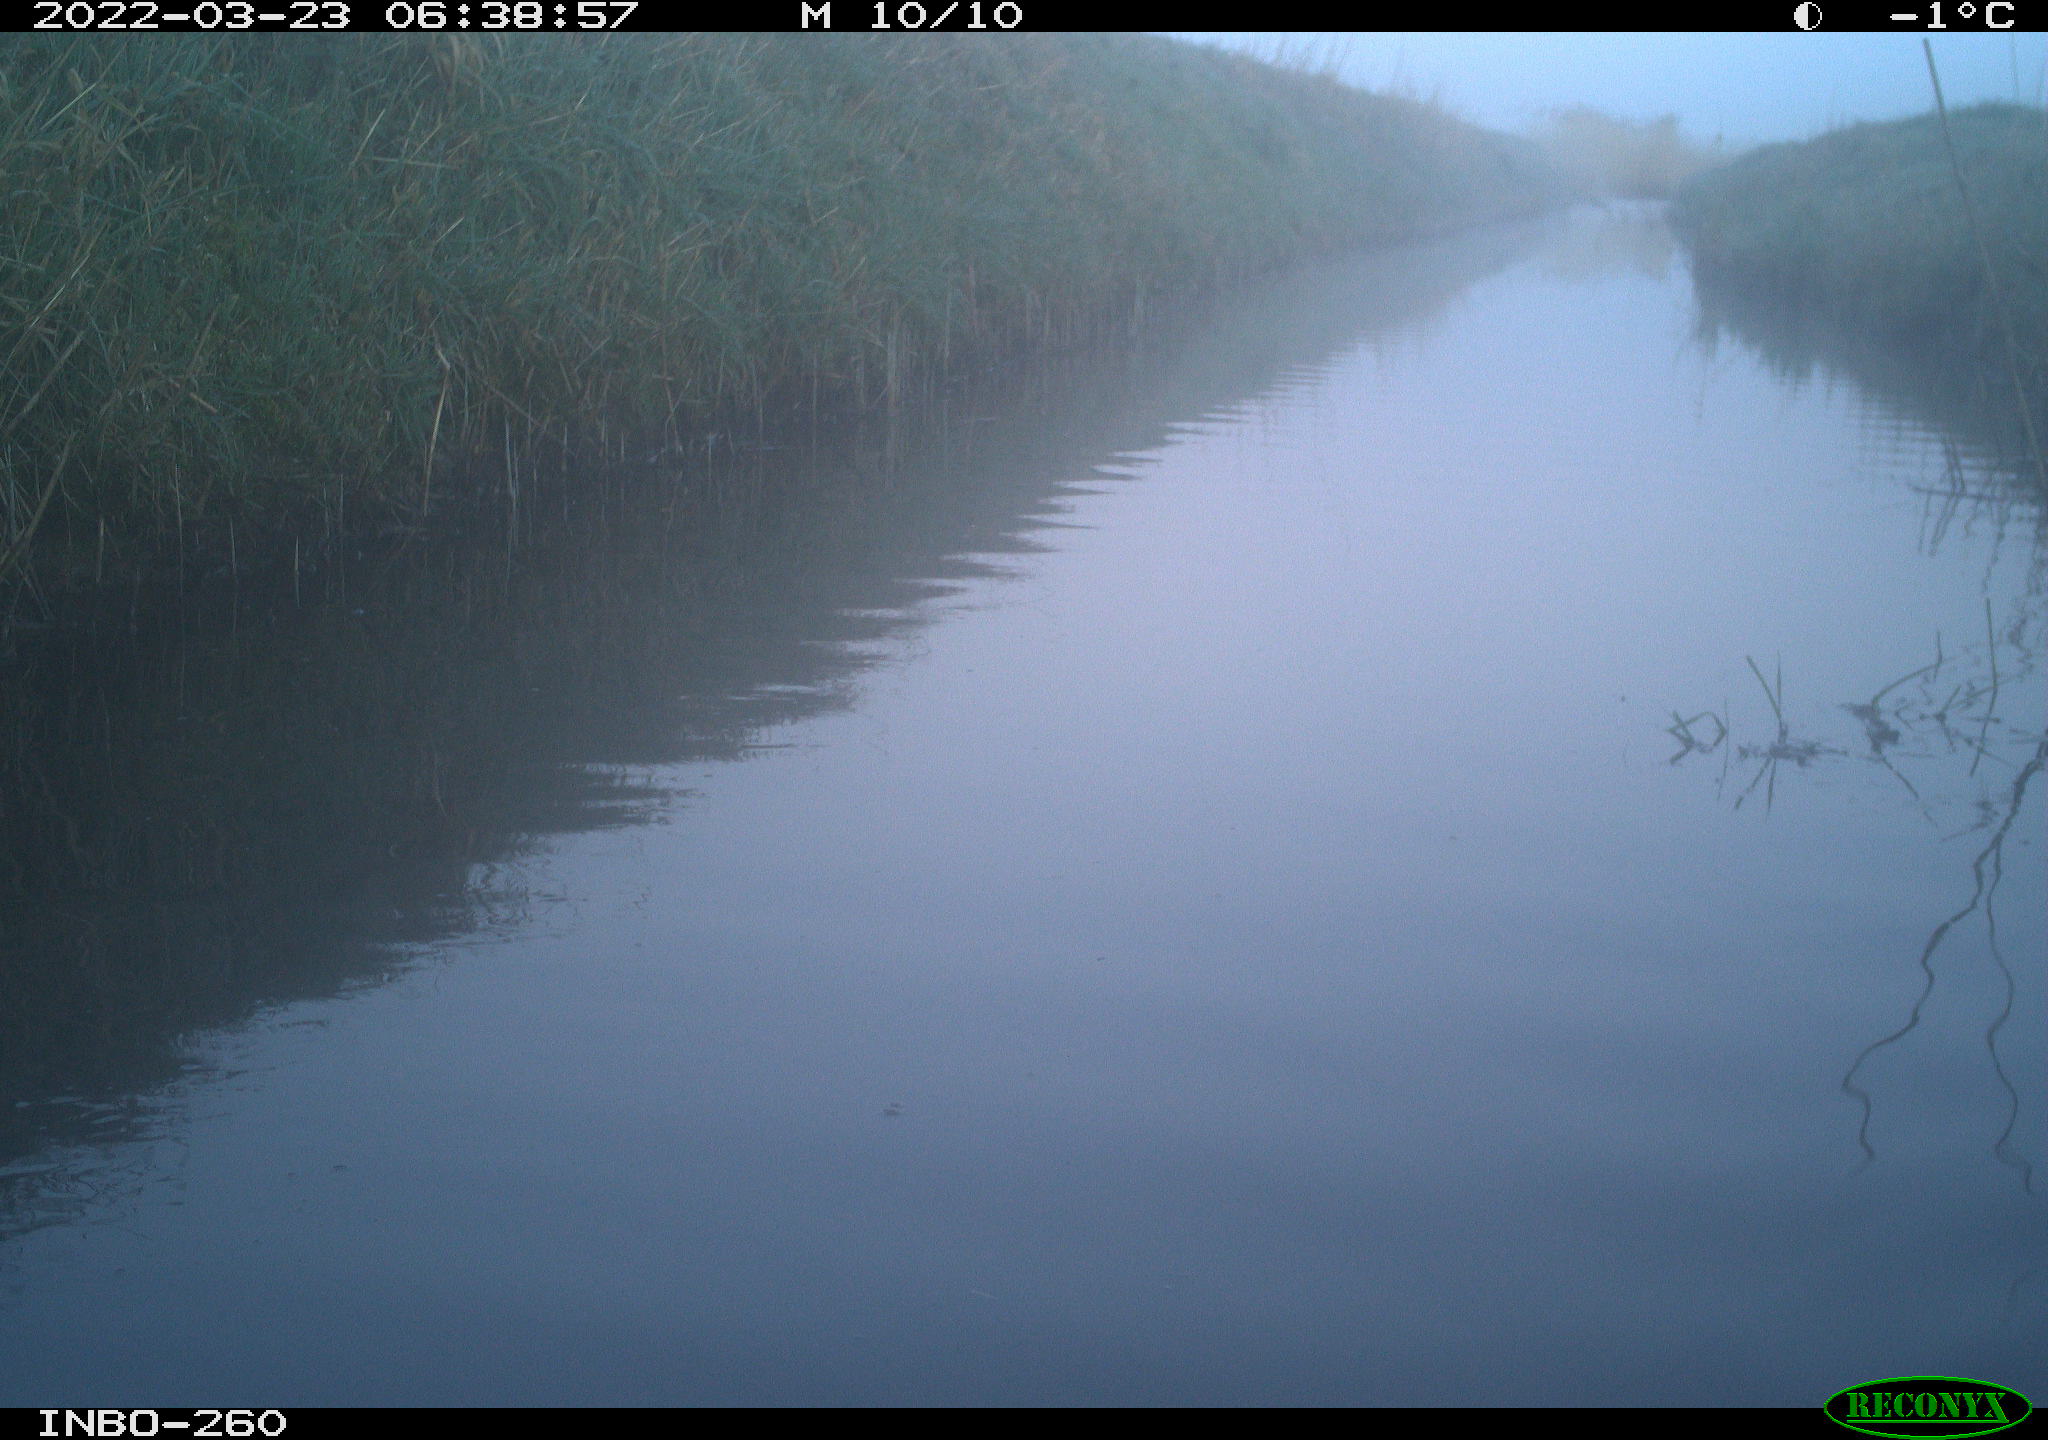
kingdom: Animalia
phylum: Chordata
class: Mammalia
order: Rodentia
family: Cricetidae
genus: Ondatra
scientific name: Ondatra zibethicus
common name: Muskrat
